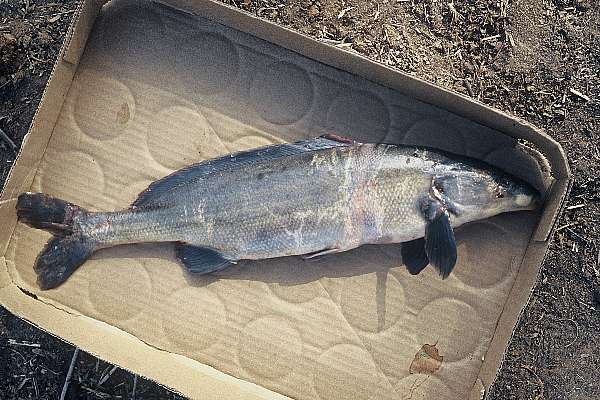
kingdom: Animalia
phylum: Chordata
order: Osteoglossiformes
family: Mormyridae
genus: Mormyrus
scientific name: Mormyrus lacerda
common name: Western bottlenose
